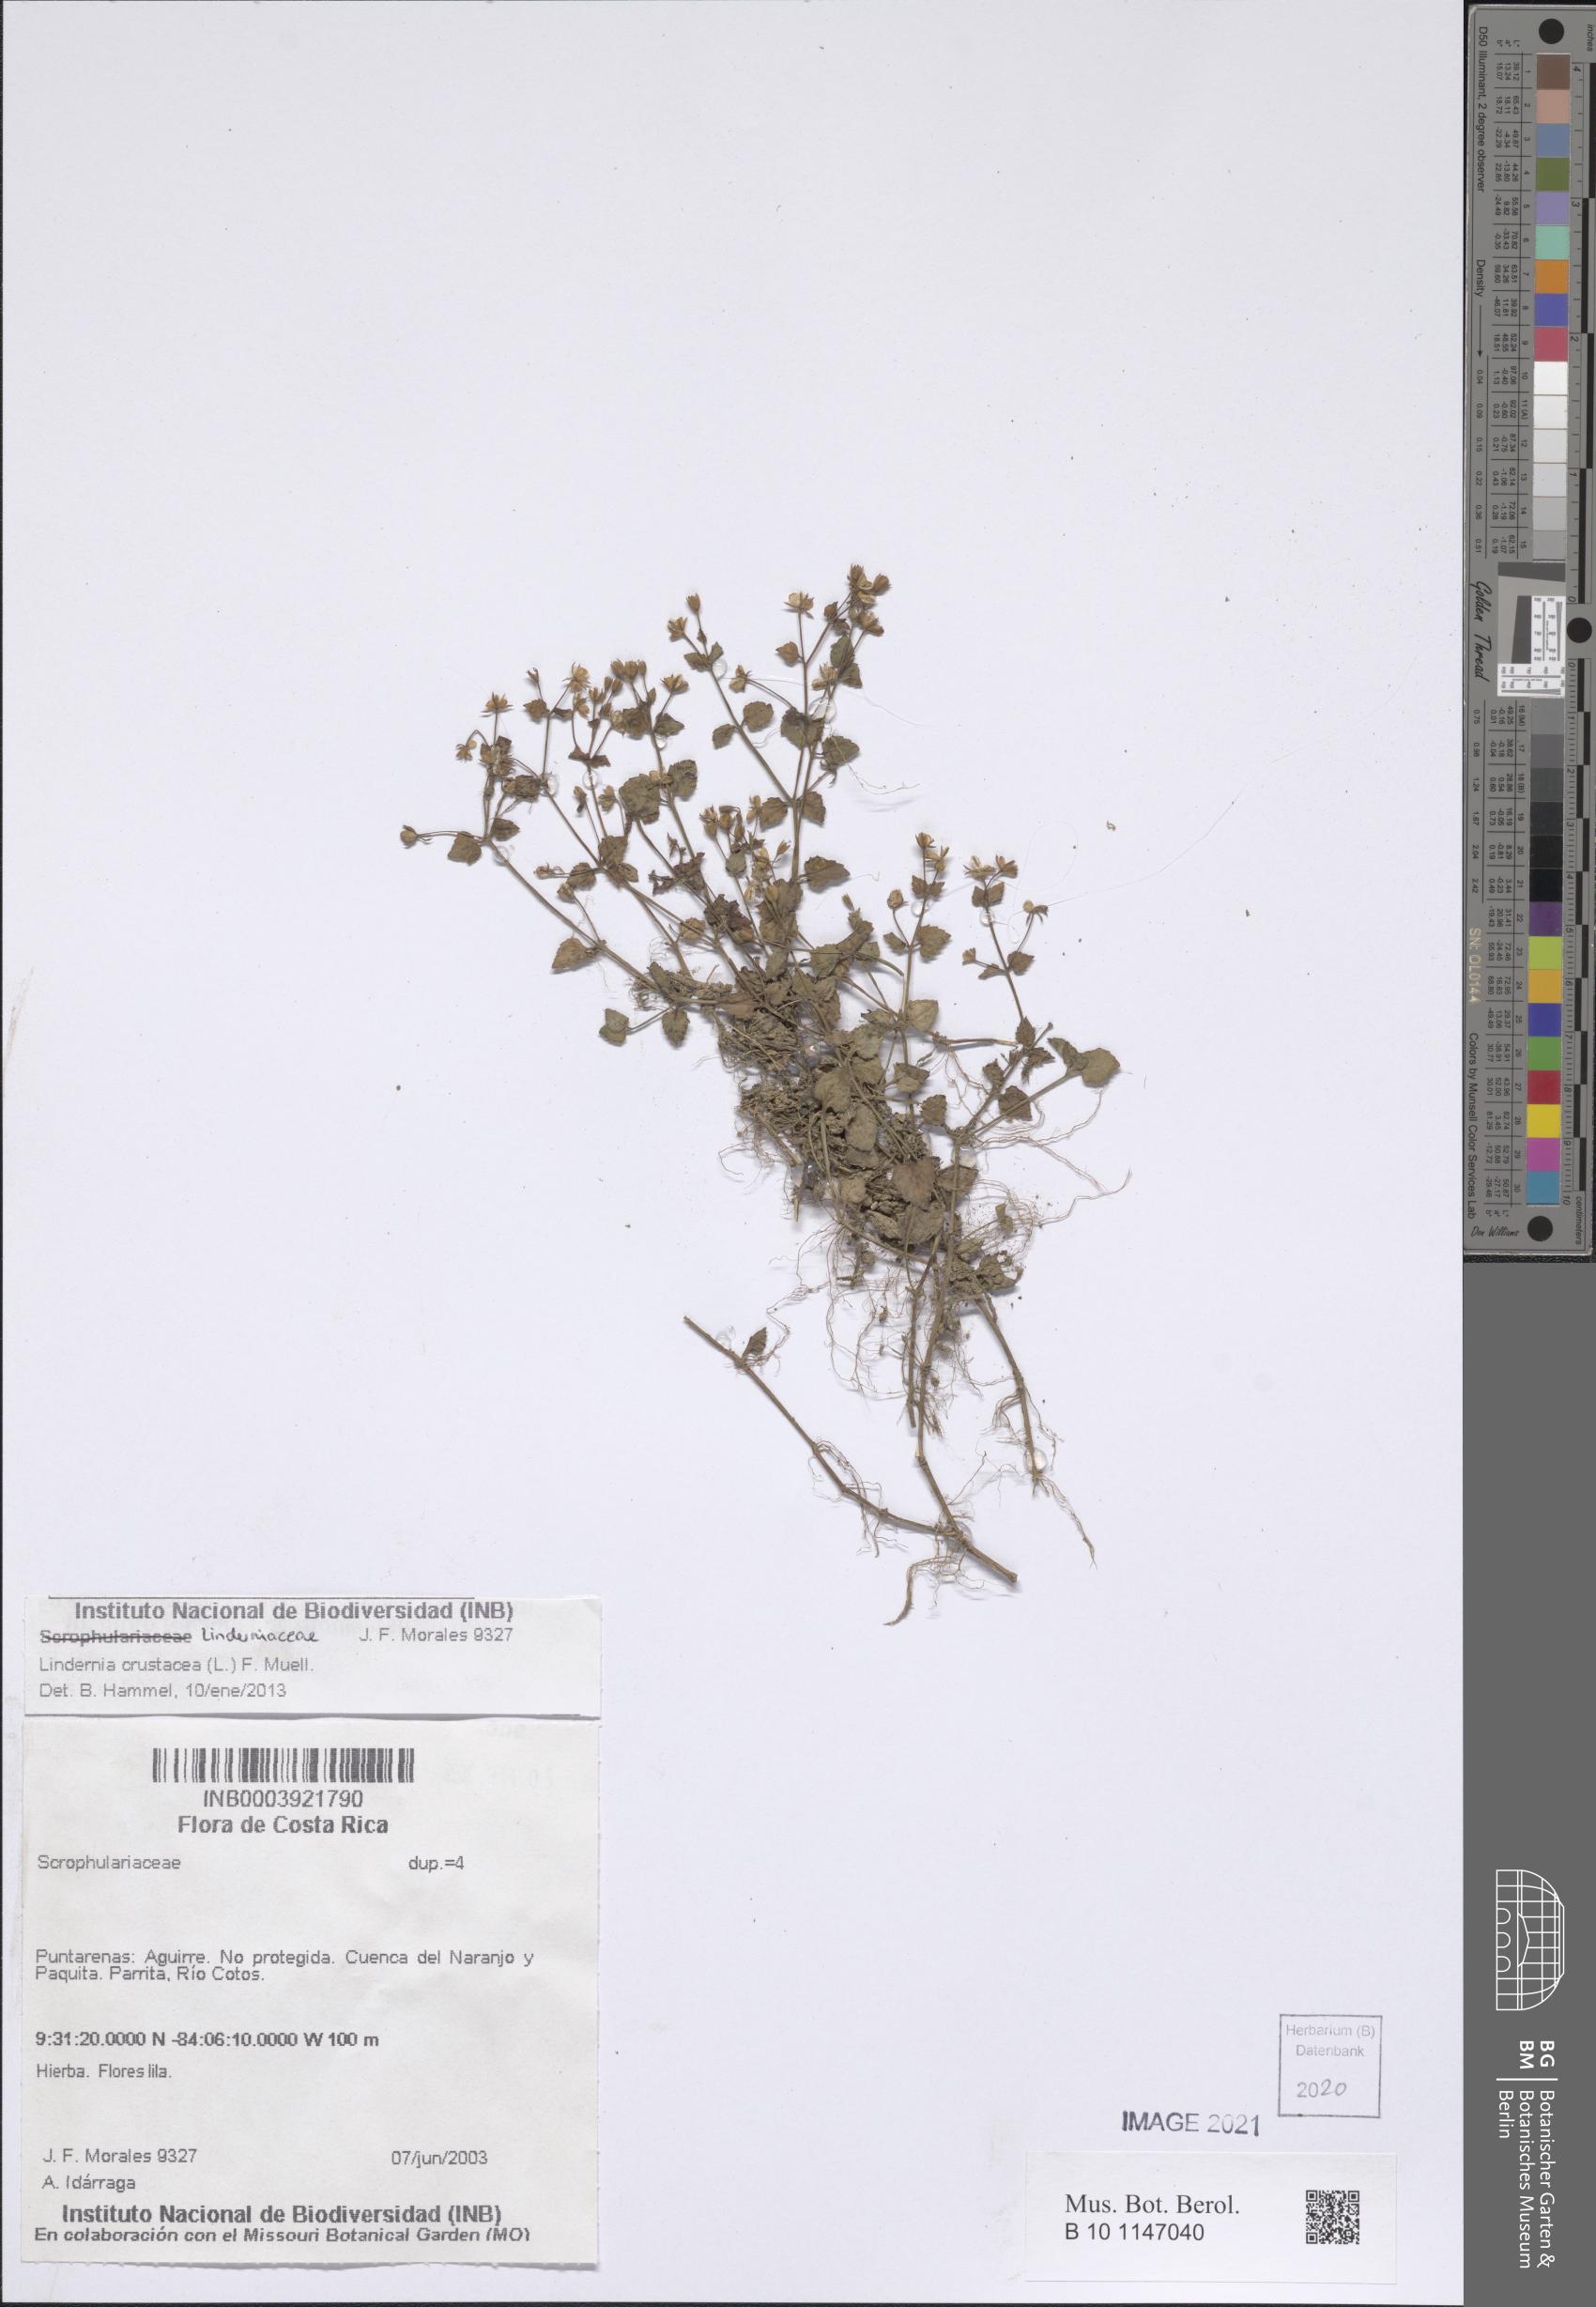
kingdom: Plantae
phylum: Tracheophyta
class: Magnoliopsida
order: Lamiales
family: Linderniaceae
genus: Torenia
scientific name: Torenia crustacea
